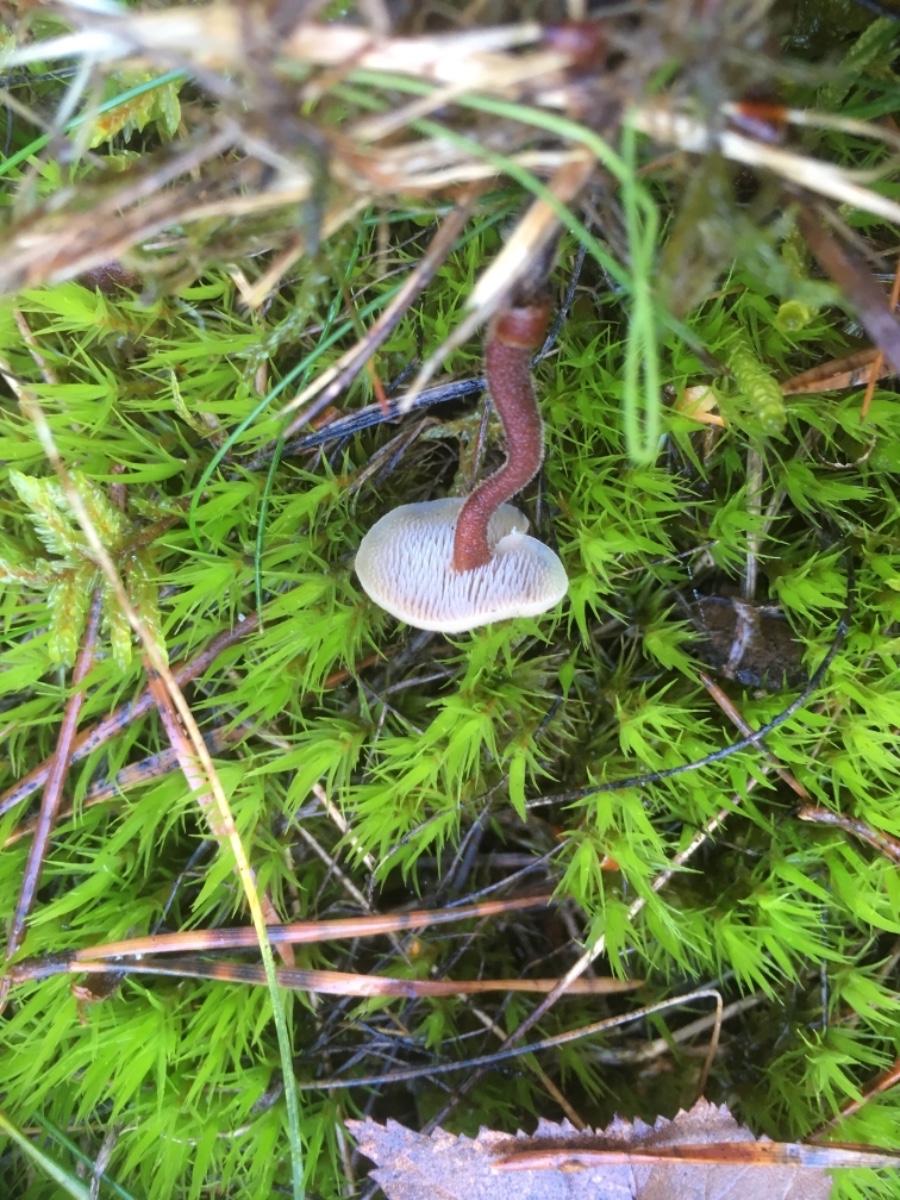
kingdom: Fungi
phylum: Basidiomycota
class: Agaricomycetes
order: Russulales
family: Auriscalpiaceae
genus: Auriscalpium
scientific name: Auriscalpium vulgare
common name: koglepigsvamp
